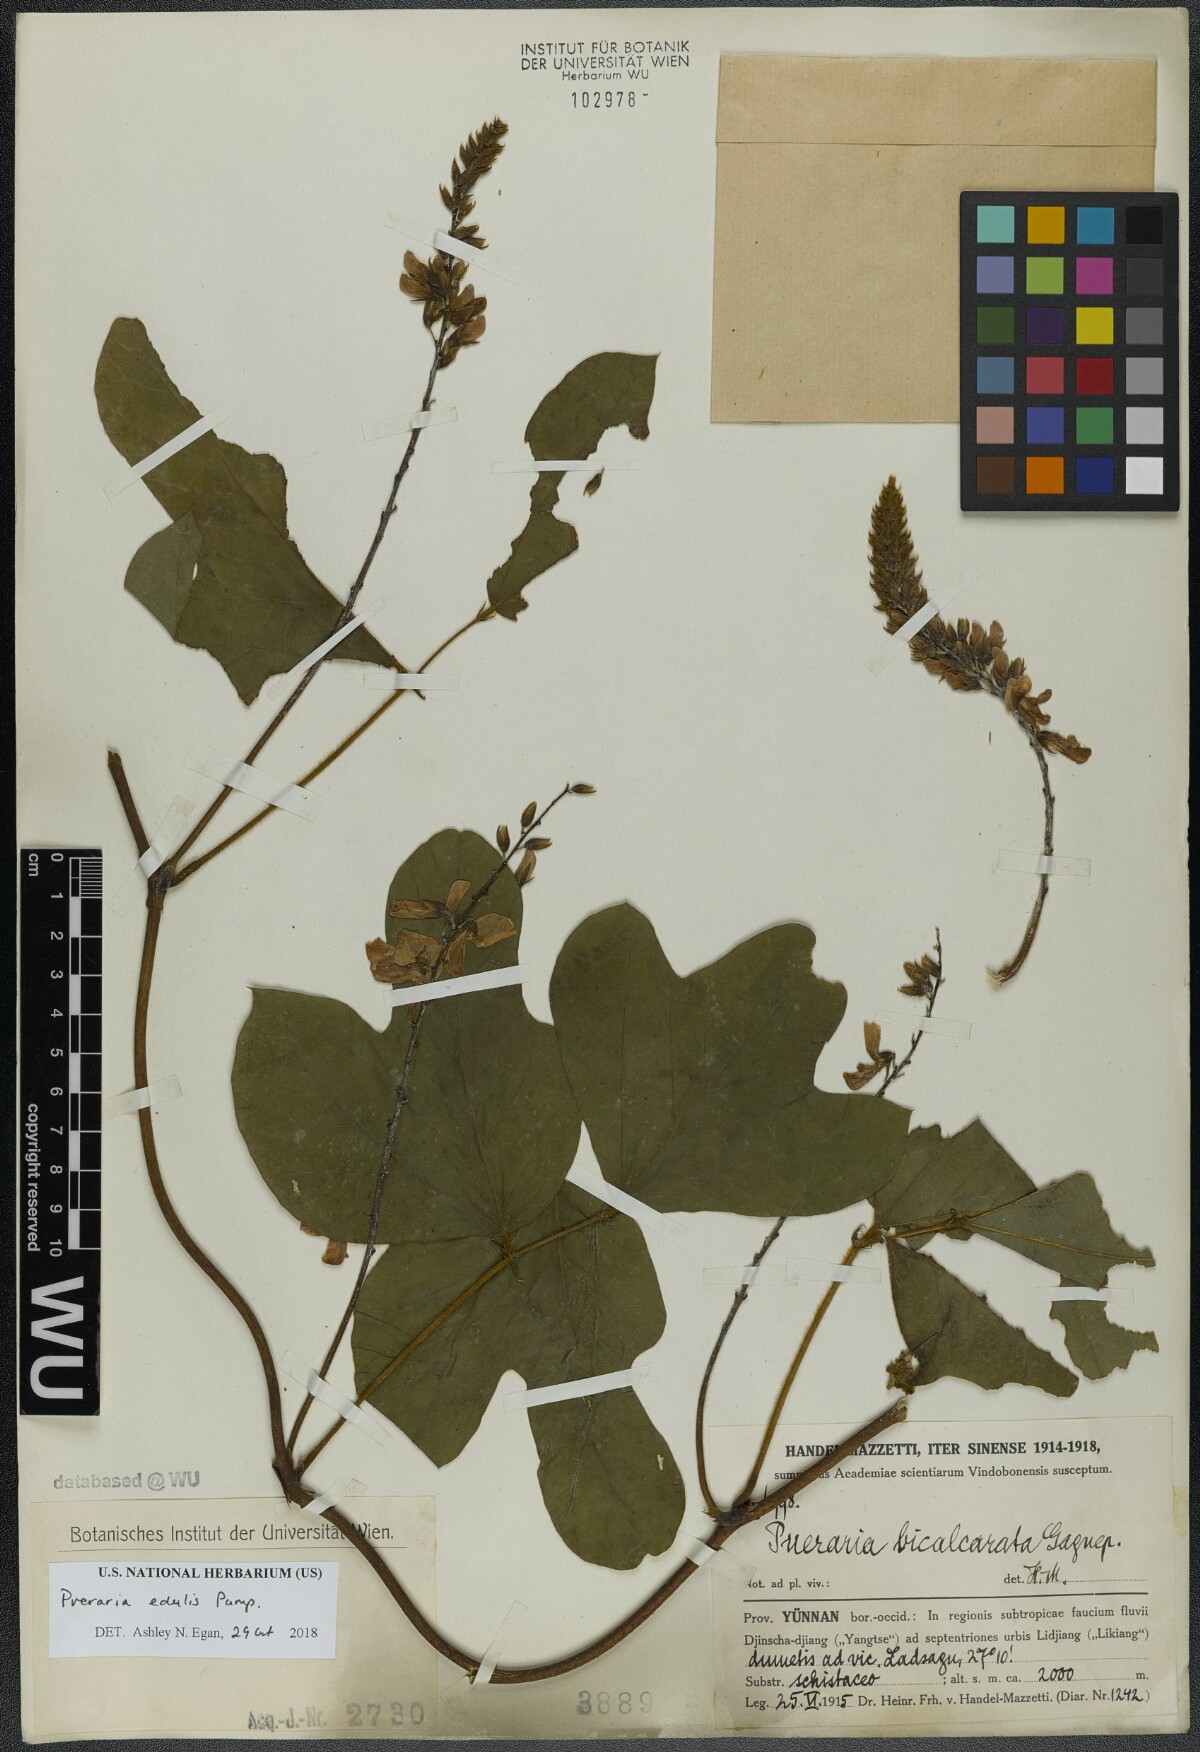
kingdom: Plantae
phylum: Tracheophyta
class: Magnoliopsida
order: Fabales
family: Fabaceae
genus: Pueraria
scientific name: Pueraria edulis
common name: Edible kudzu
